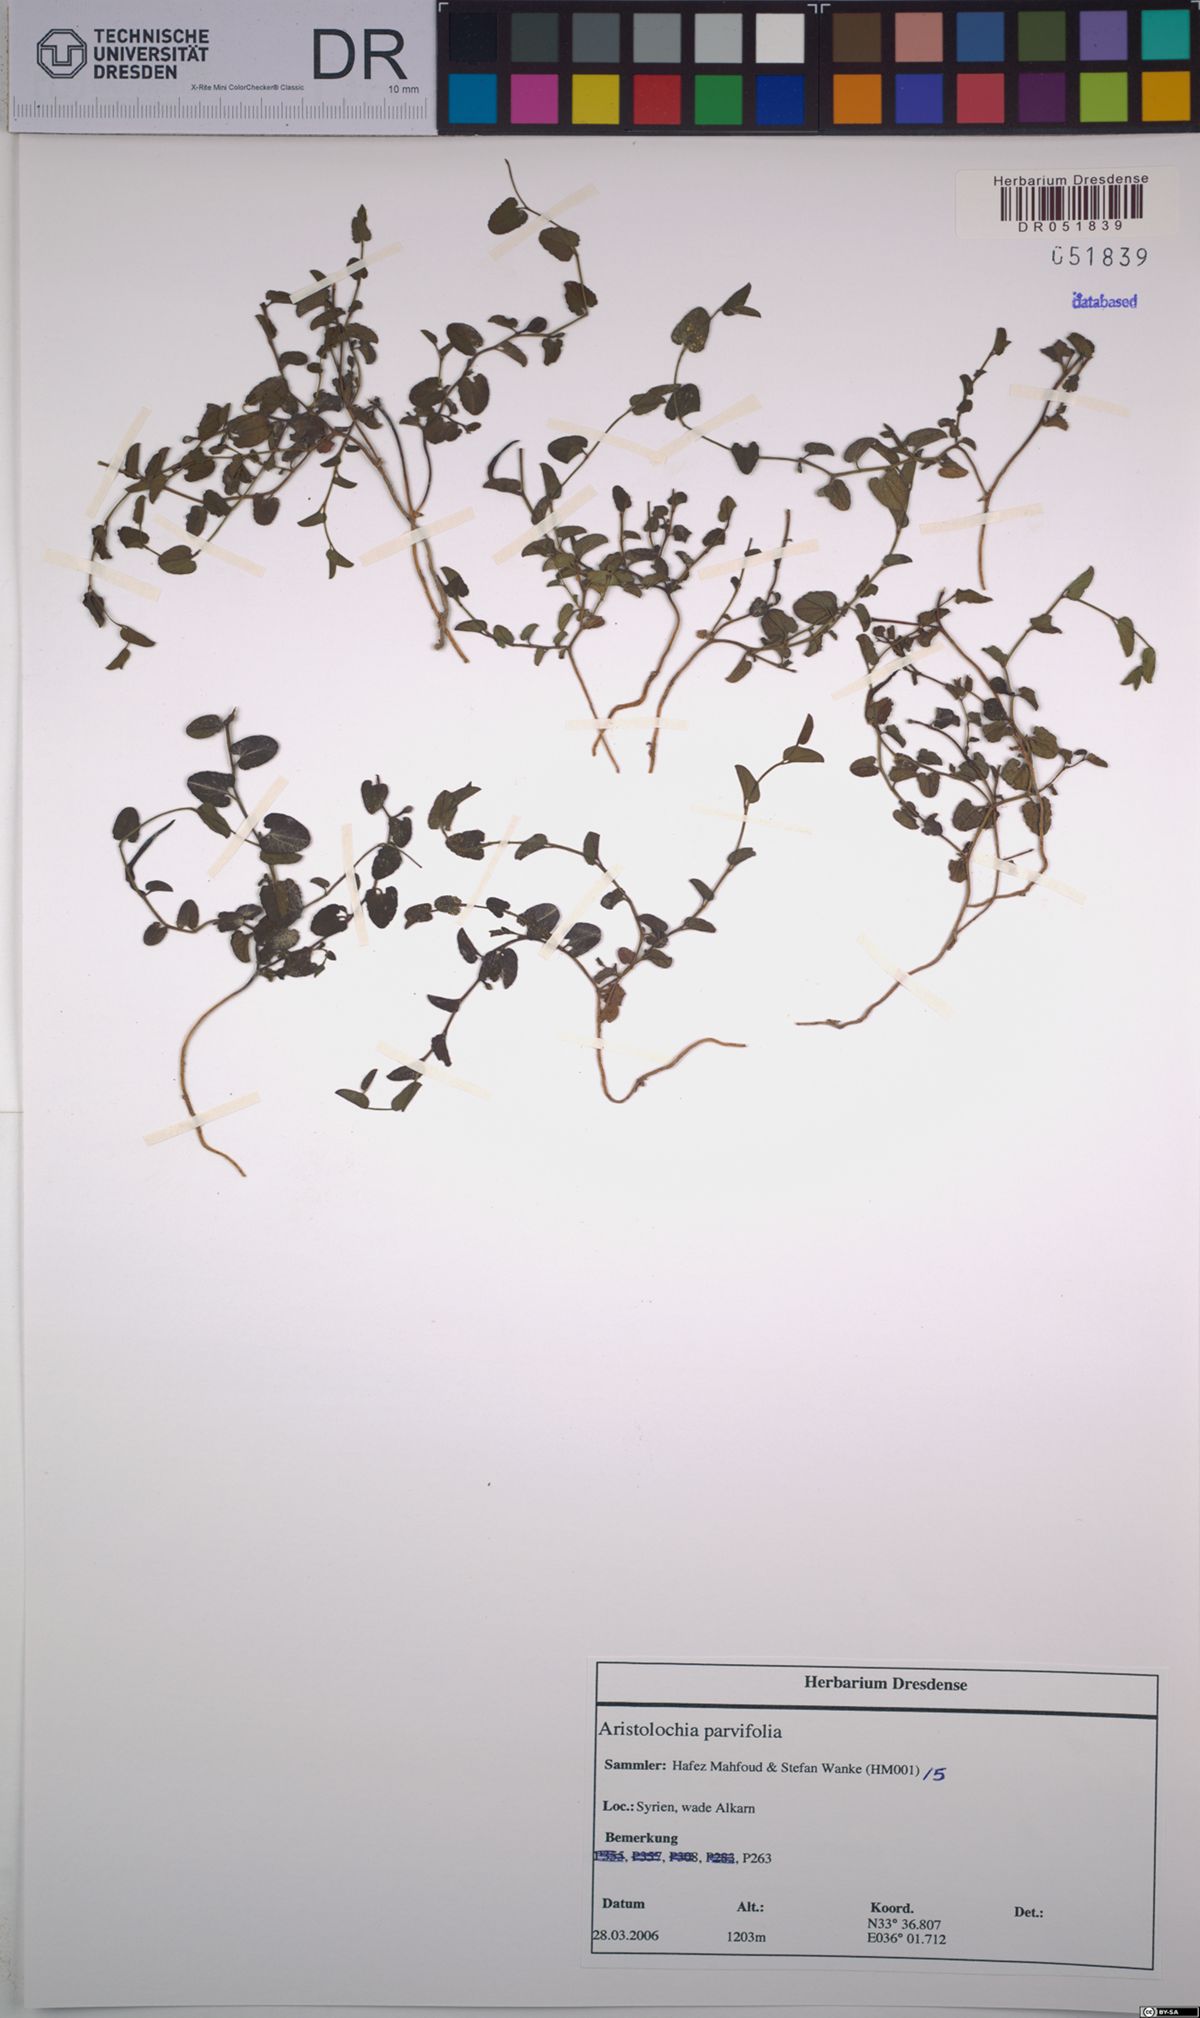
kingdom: Plantae
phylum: Tracheophyta
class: Magnoliopsida
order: Piperales
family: Aristolochiaceae
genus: Aristolochia
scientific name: Aristolochia parvifolia
